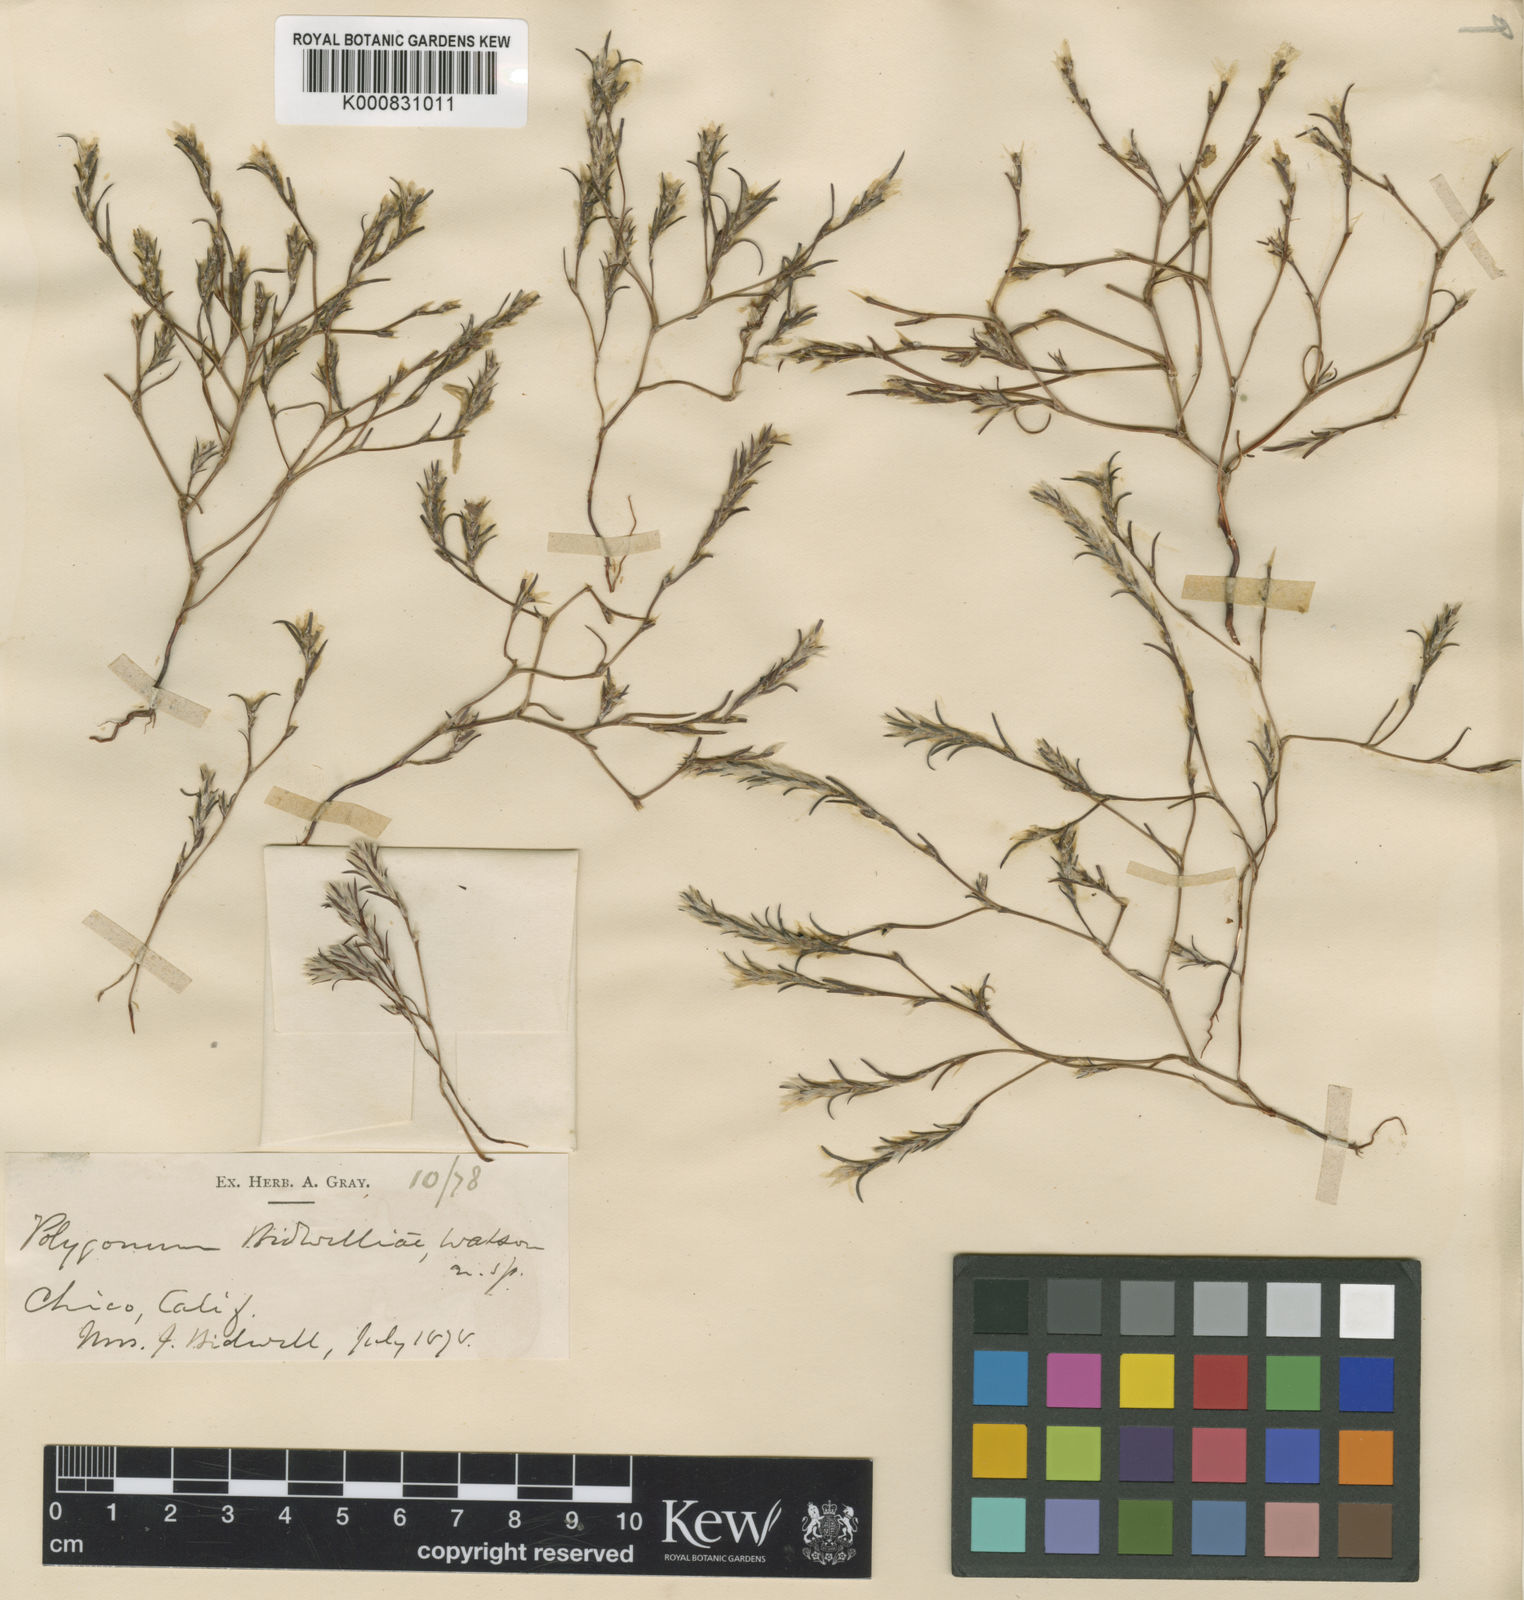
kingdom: Plantae
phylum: Tracheophyta
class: Magnoliopsida
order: Caryophyllales
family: Polygonaceae
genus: Polygonum
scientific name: Polygonum bidwelliae
